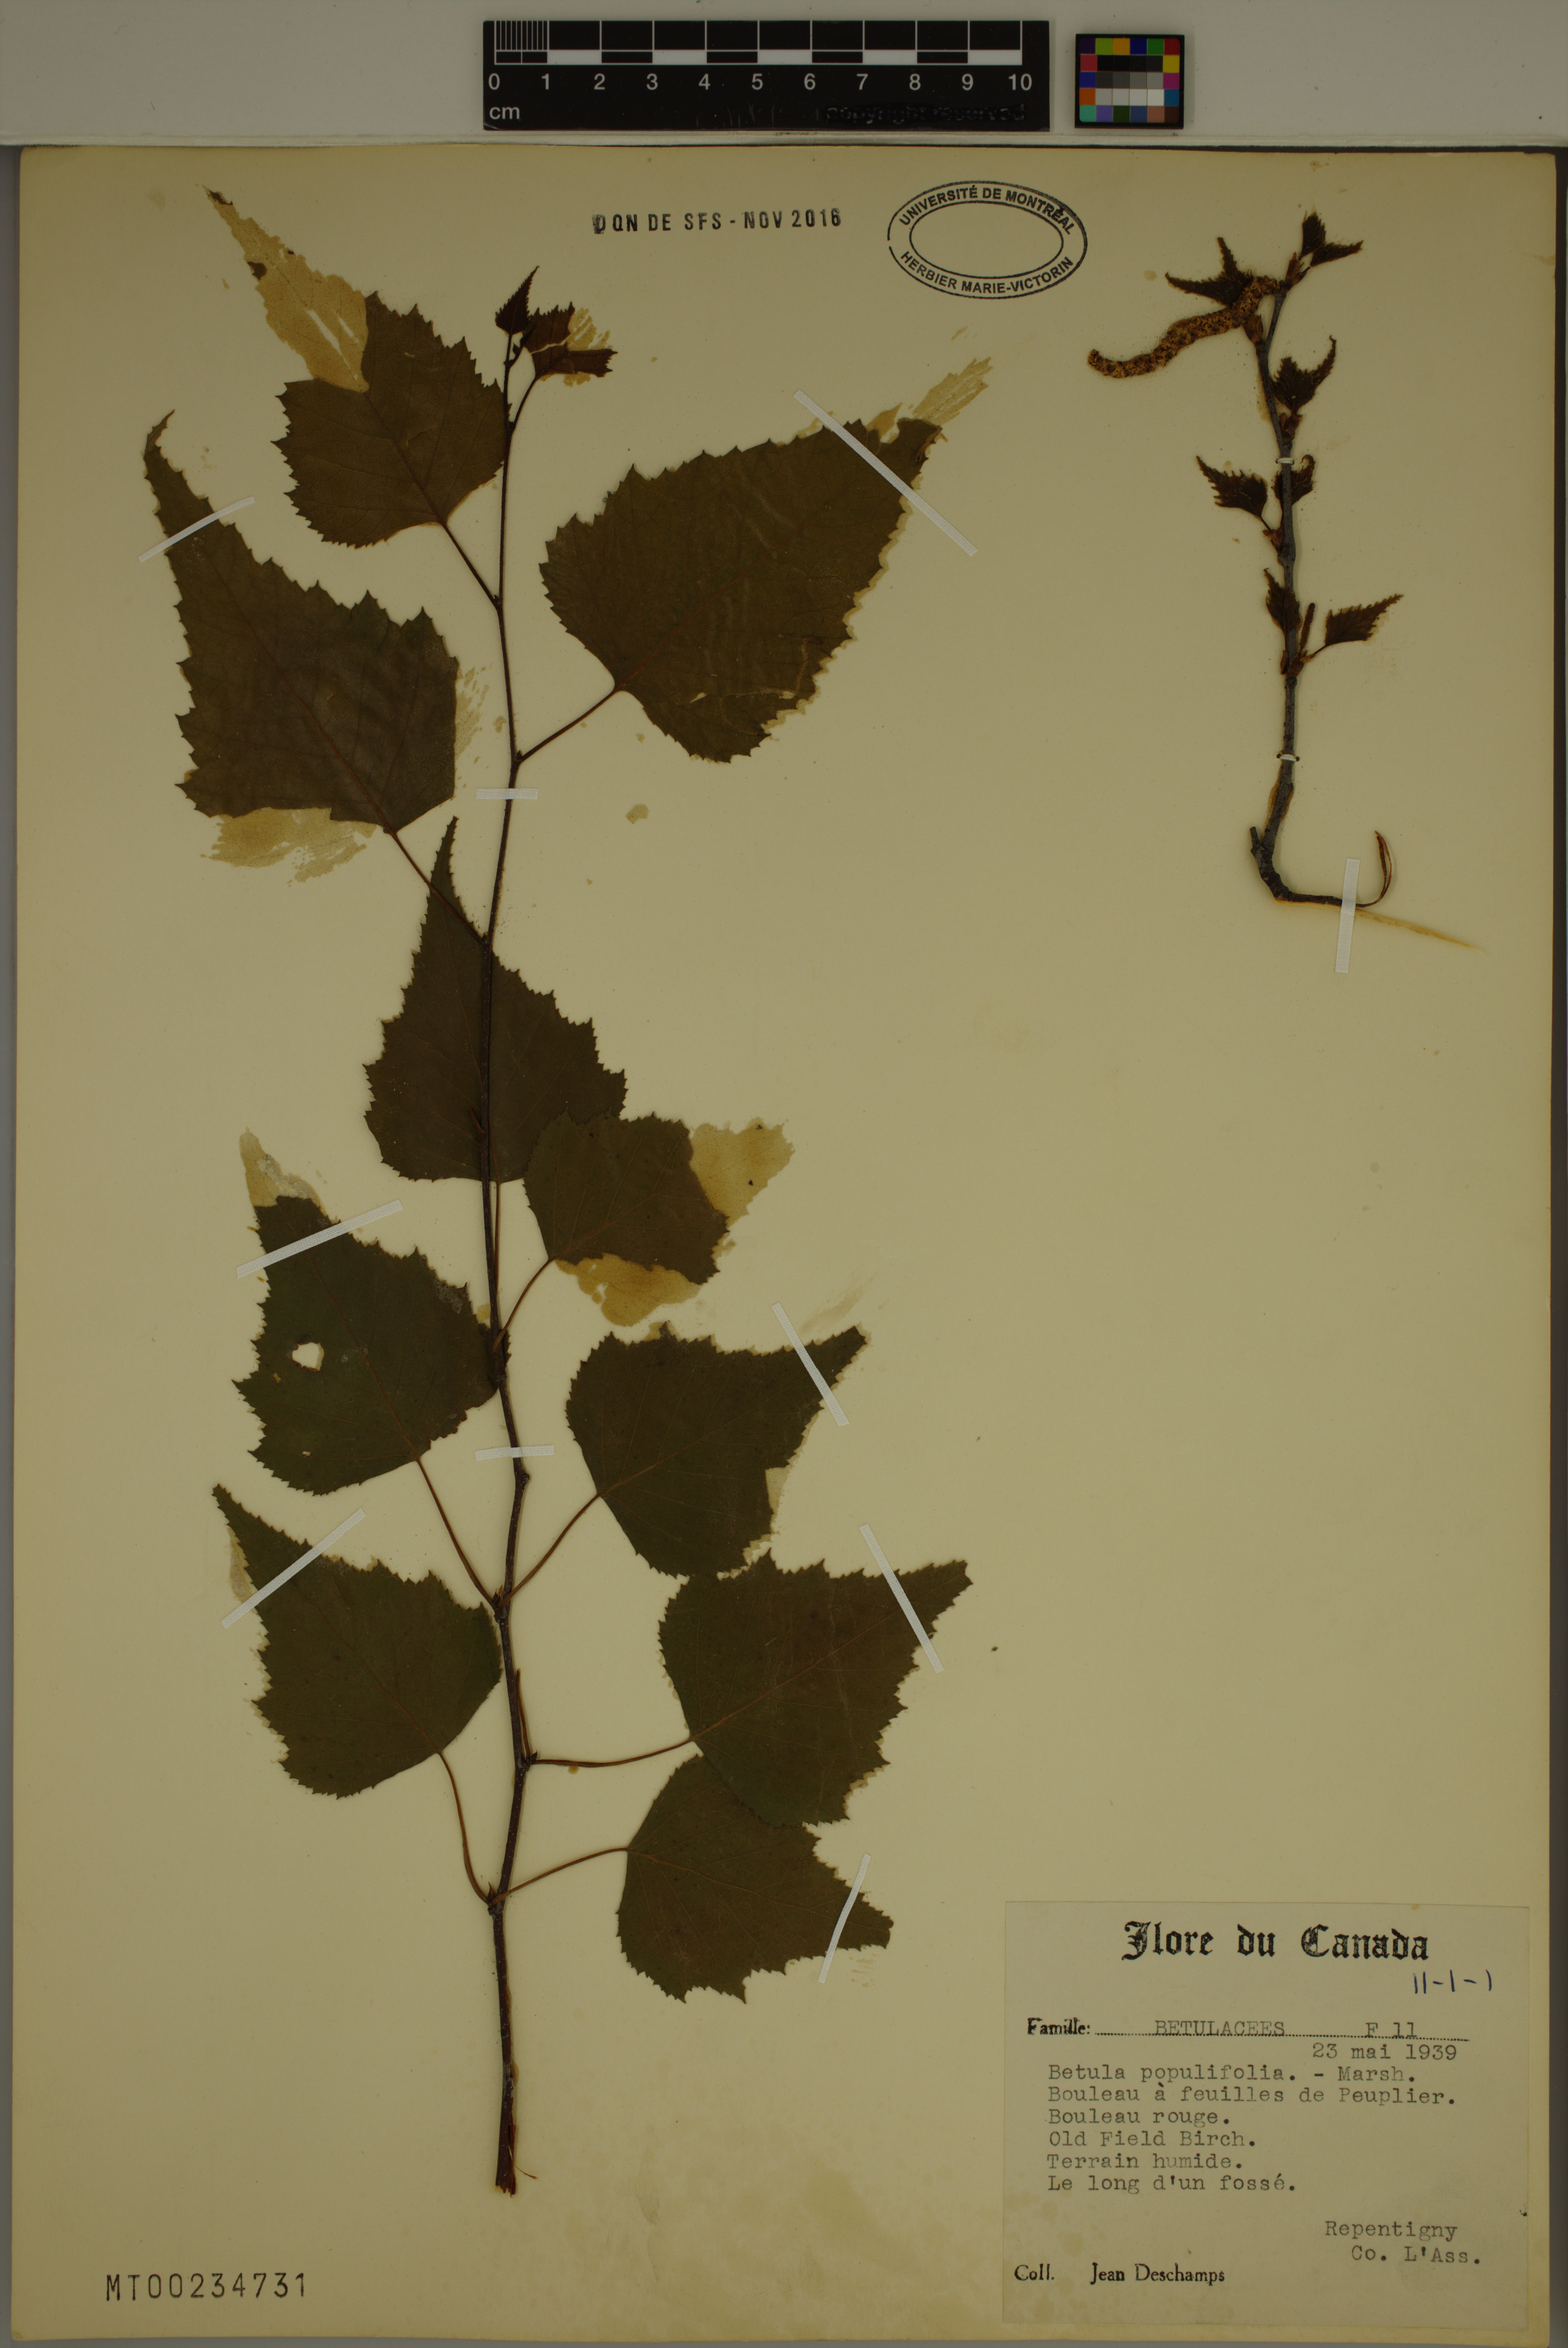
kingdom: Plantae
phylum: Tracheophyta
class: Magnoliopsida
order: Fagales
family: Betulaceae
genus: Betula
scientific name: Betula populifolia
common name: Fire birch
